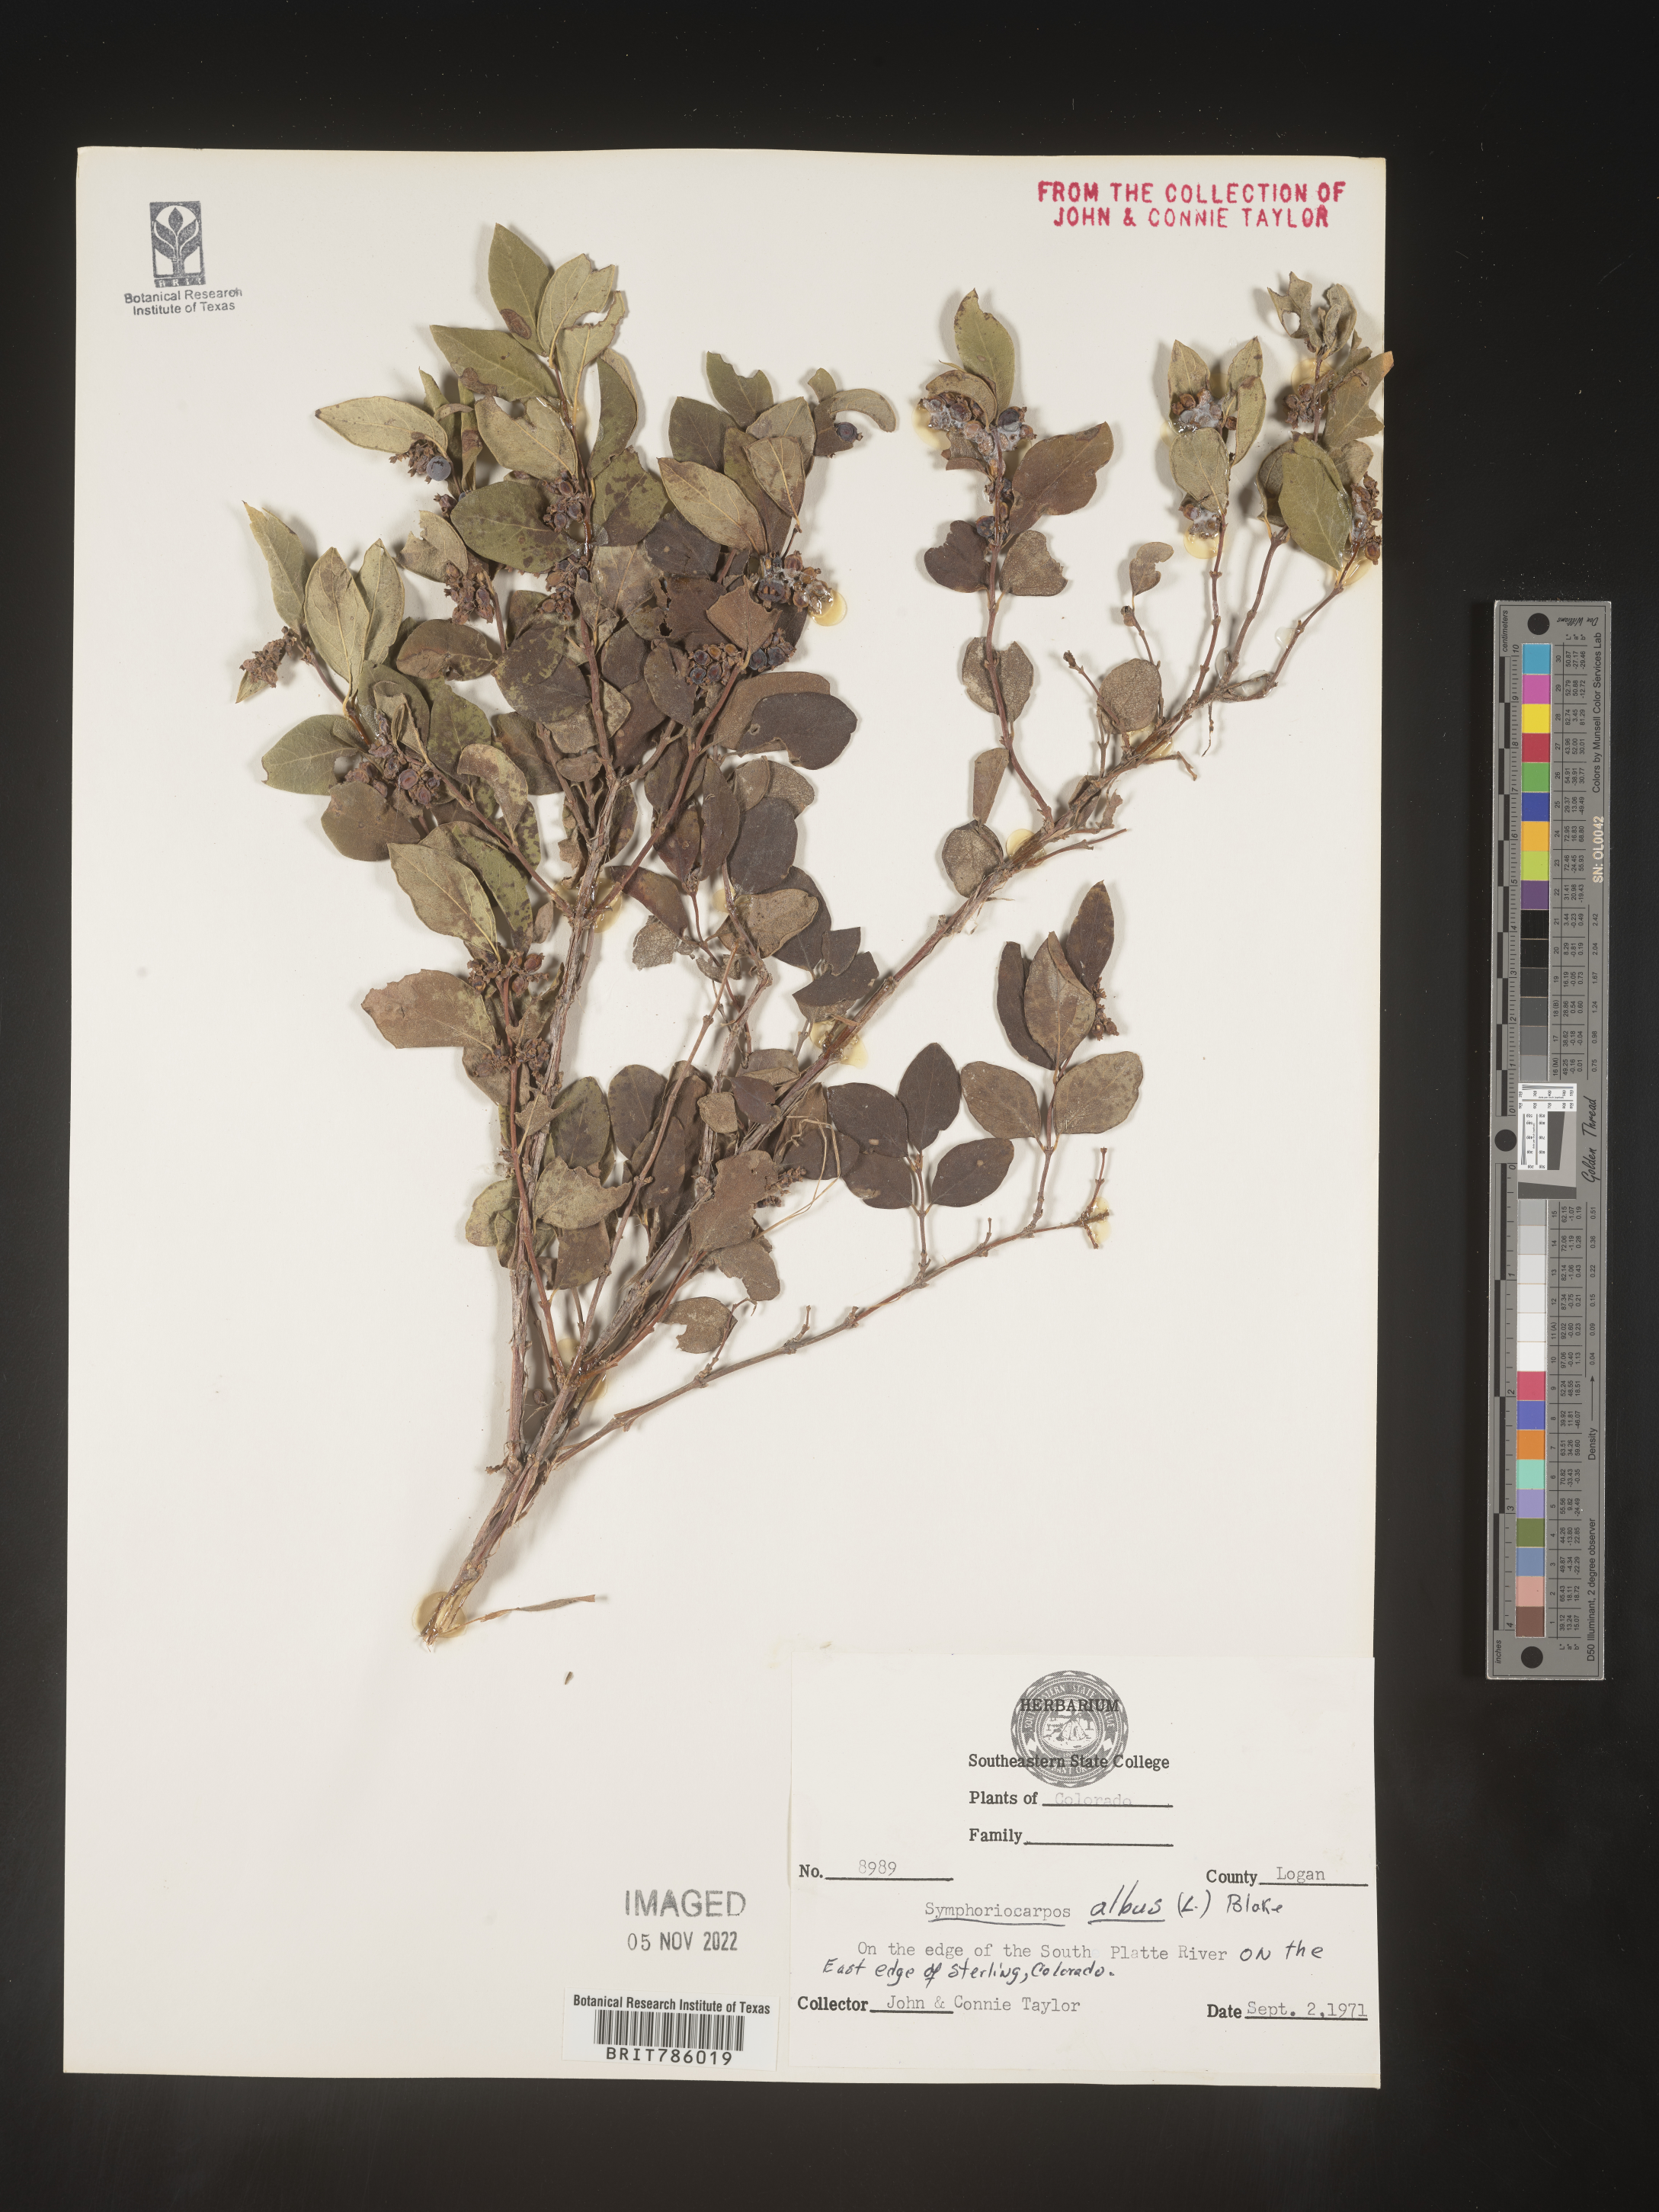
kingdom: Plantae
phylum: Tracheophyta
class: Magnoliopsida
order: Dipsacales
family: Caprifoliaceae
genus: Symphoricarpos
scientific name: Symphoricarpos albus
